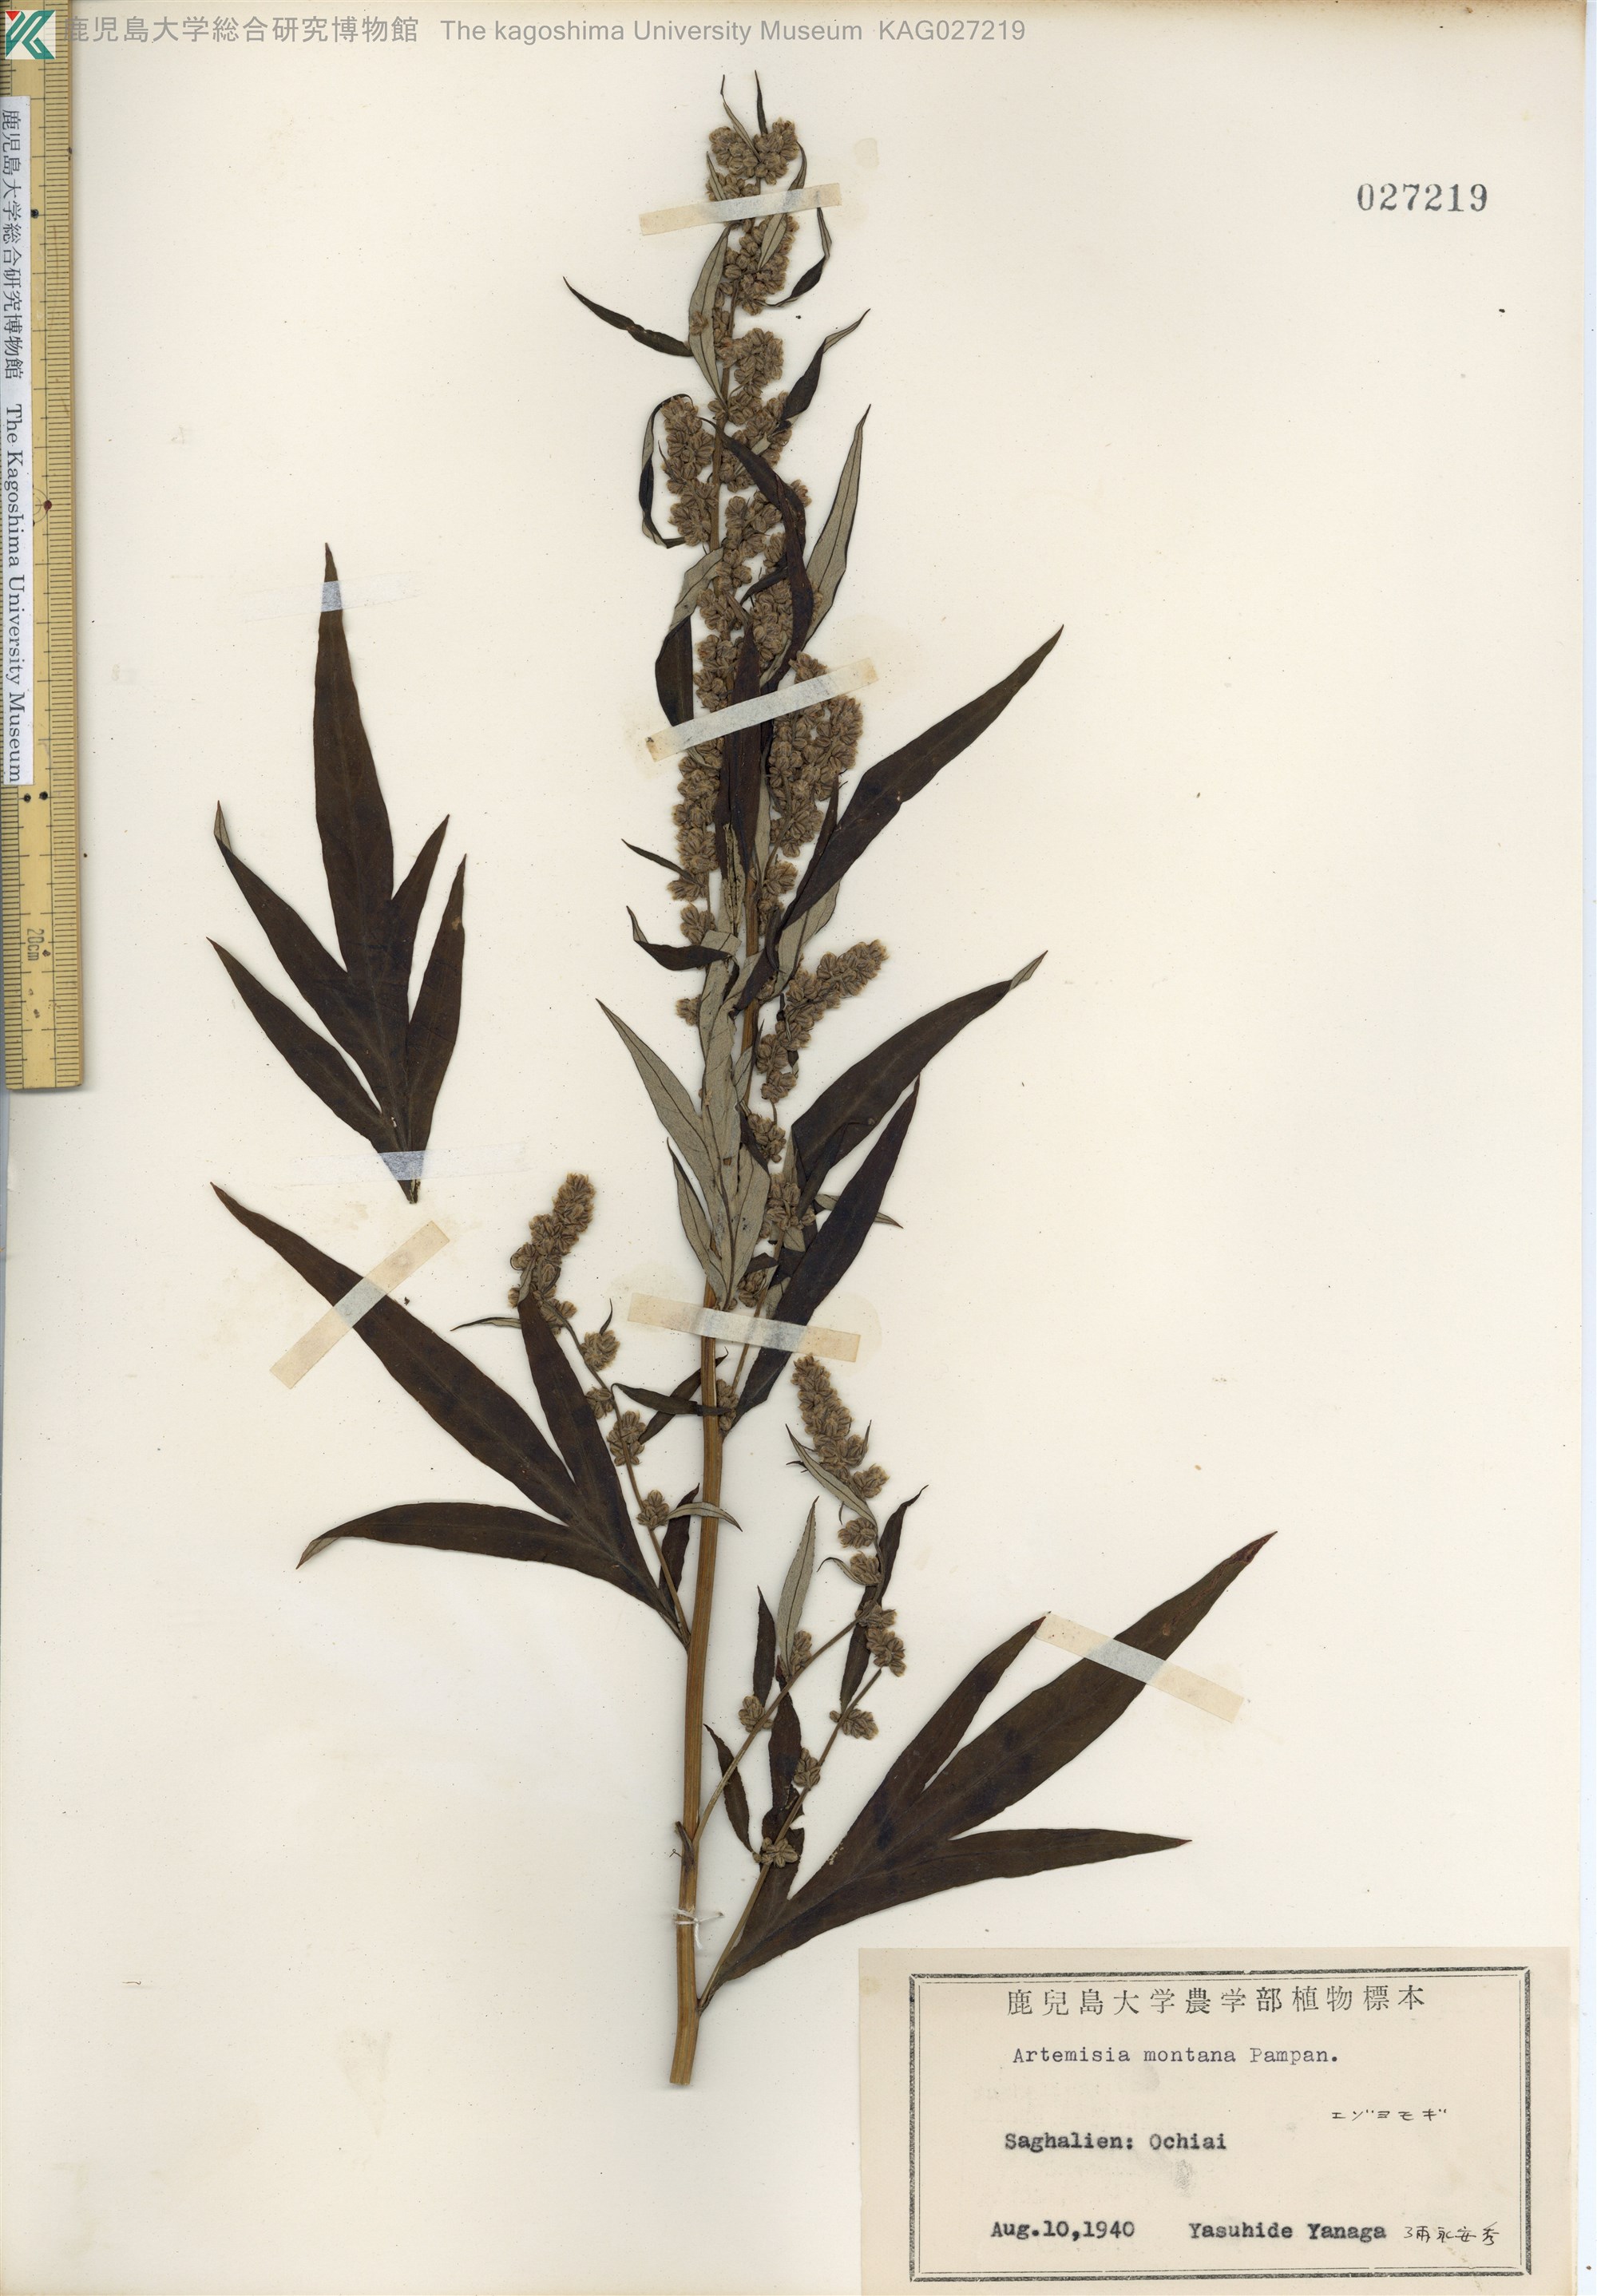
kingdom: Plantae
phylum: Tracheophyta
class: Magnoliopsida
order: Asterales
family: Asteraceae
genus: Artemisia
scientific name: Artemisia montana
